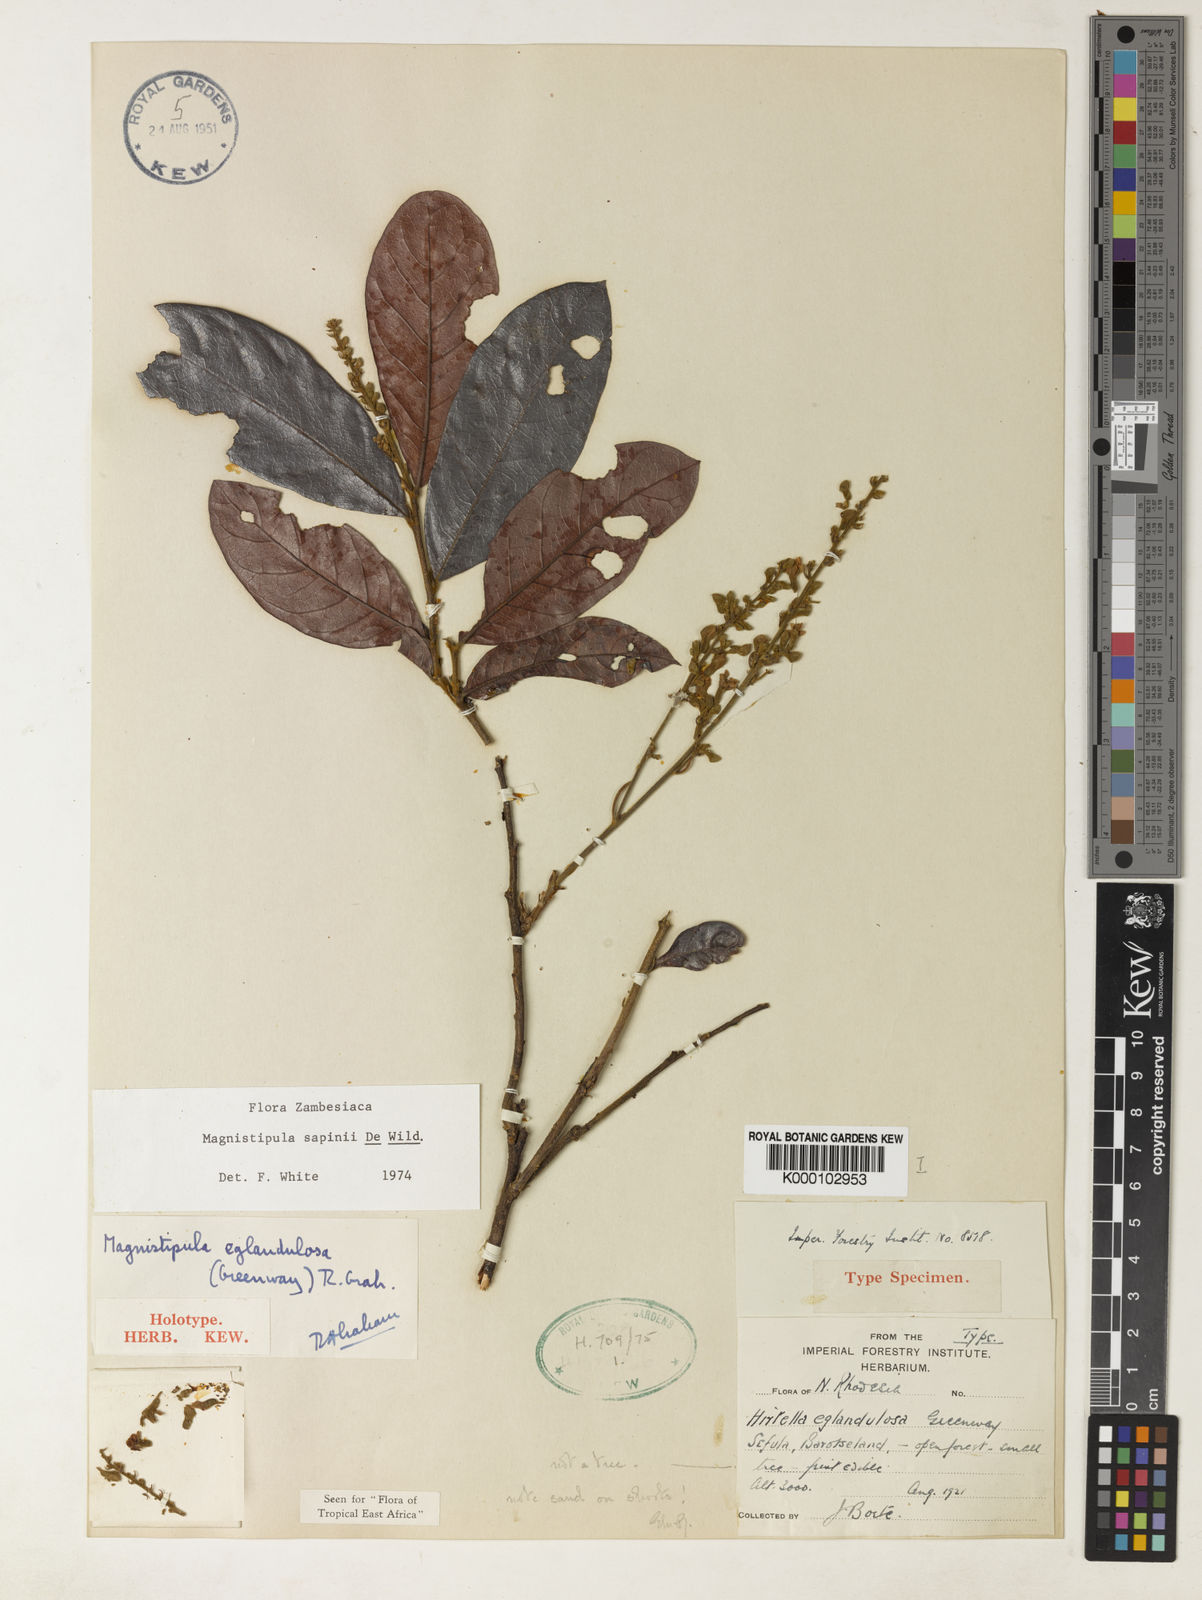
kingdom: Plantae
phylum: Tracheophyta
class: Magnoliopsida
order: Malpighiales
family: Chrysobalanaceae
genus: Magnistipula
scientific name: Magnistipula sapinii
